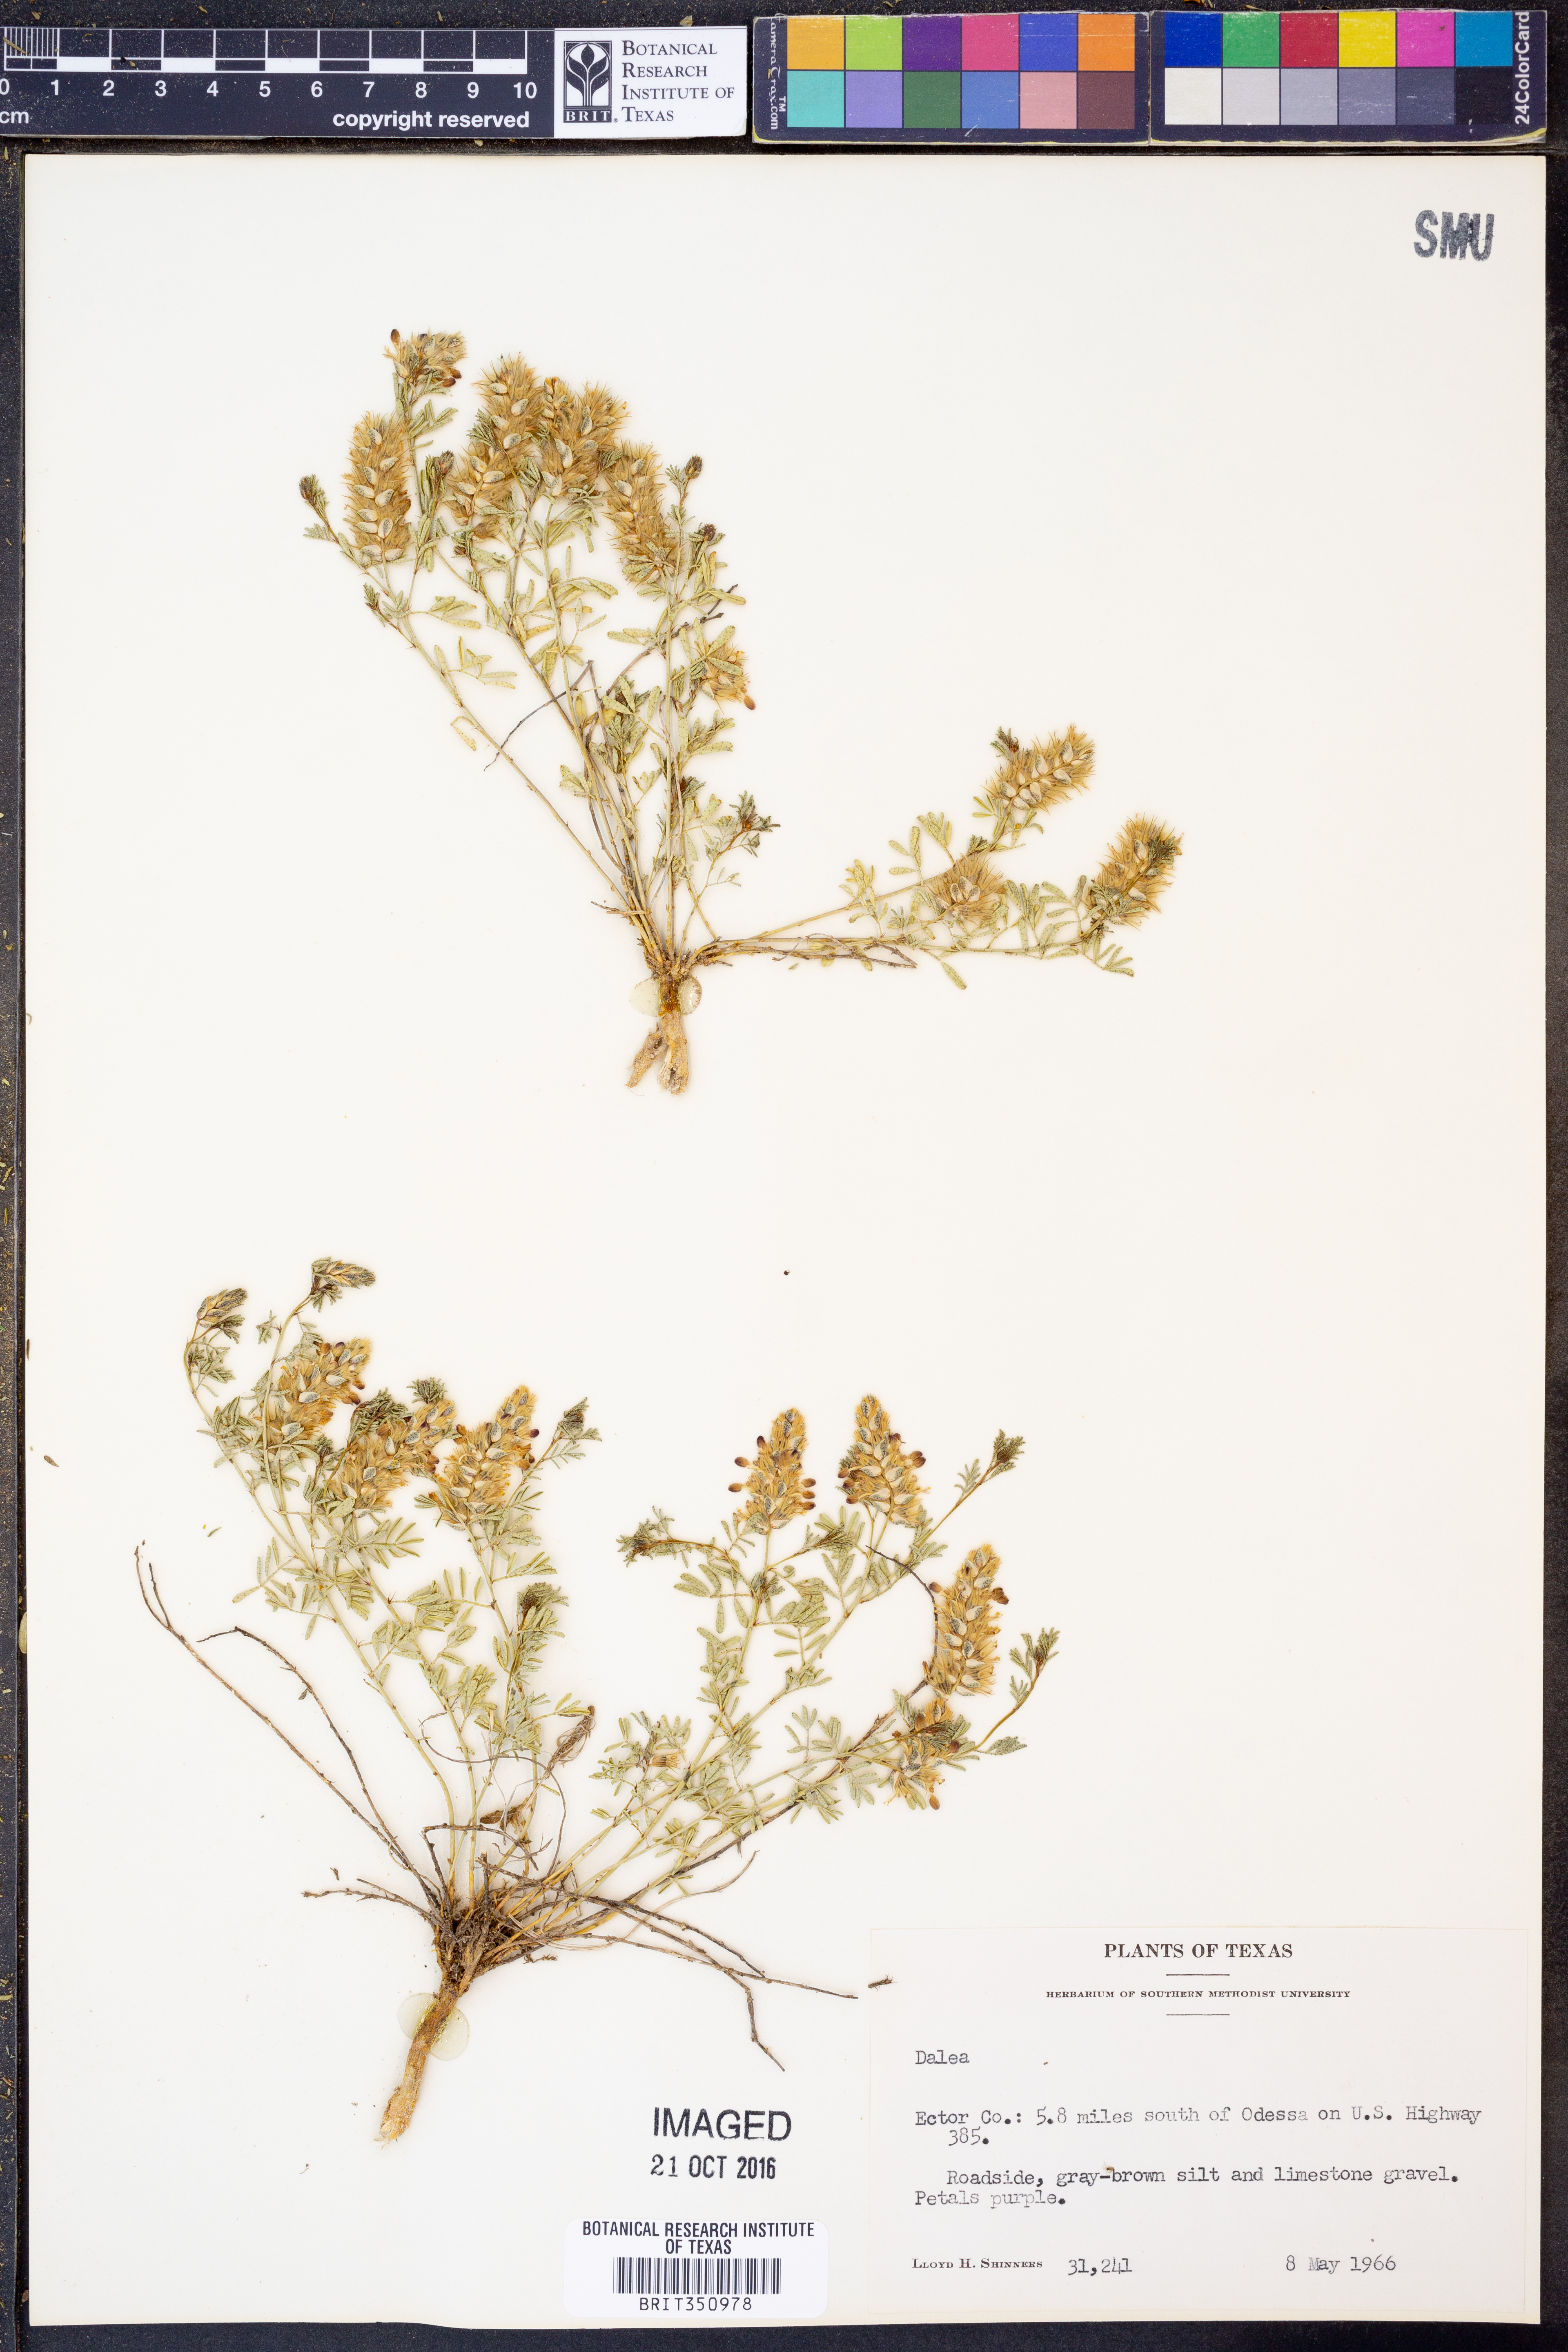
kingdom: Plantae
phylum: Tracheophyta
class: Magnoliopsida
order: Fabales
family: Fabaceae
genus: Dalea
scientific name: Dalea
